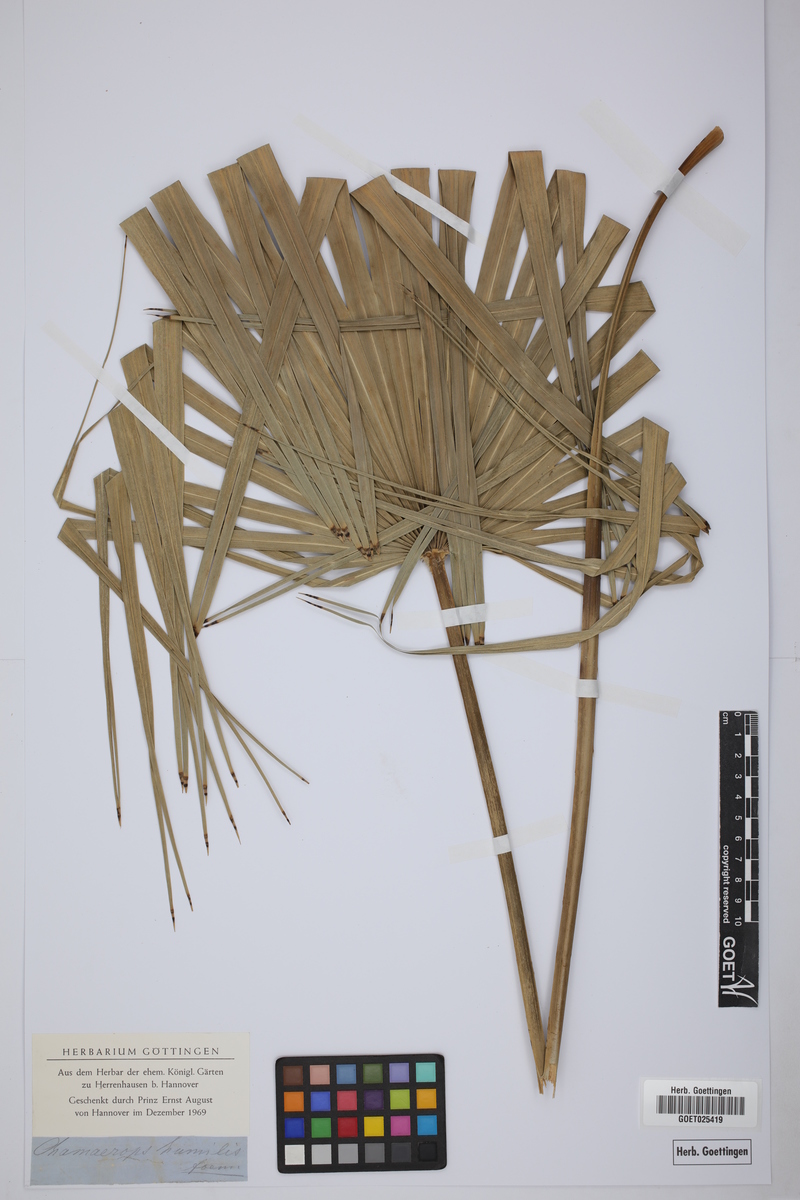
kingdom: Plantae
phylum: Tracheophyta
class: Liliopsida
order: Arecales
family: Arecaceae
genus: Chamaerops
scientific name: Chamaerops humilis
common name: Dwarf fan palm
